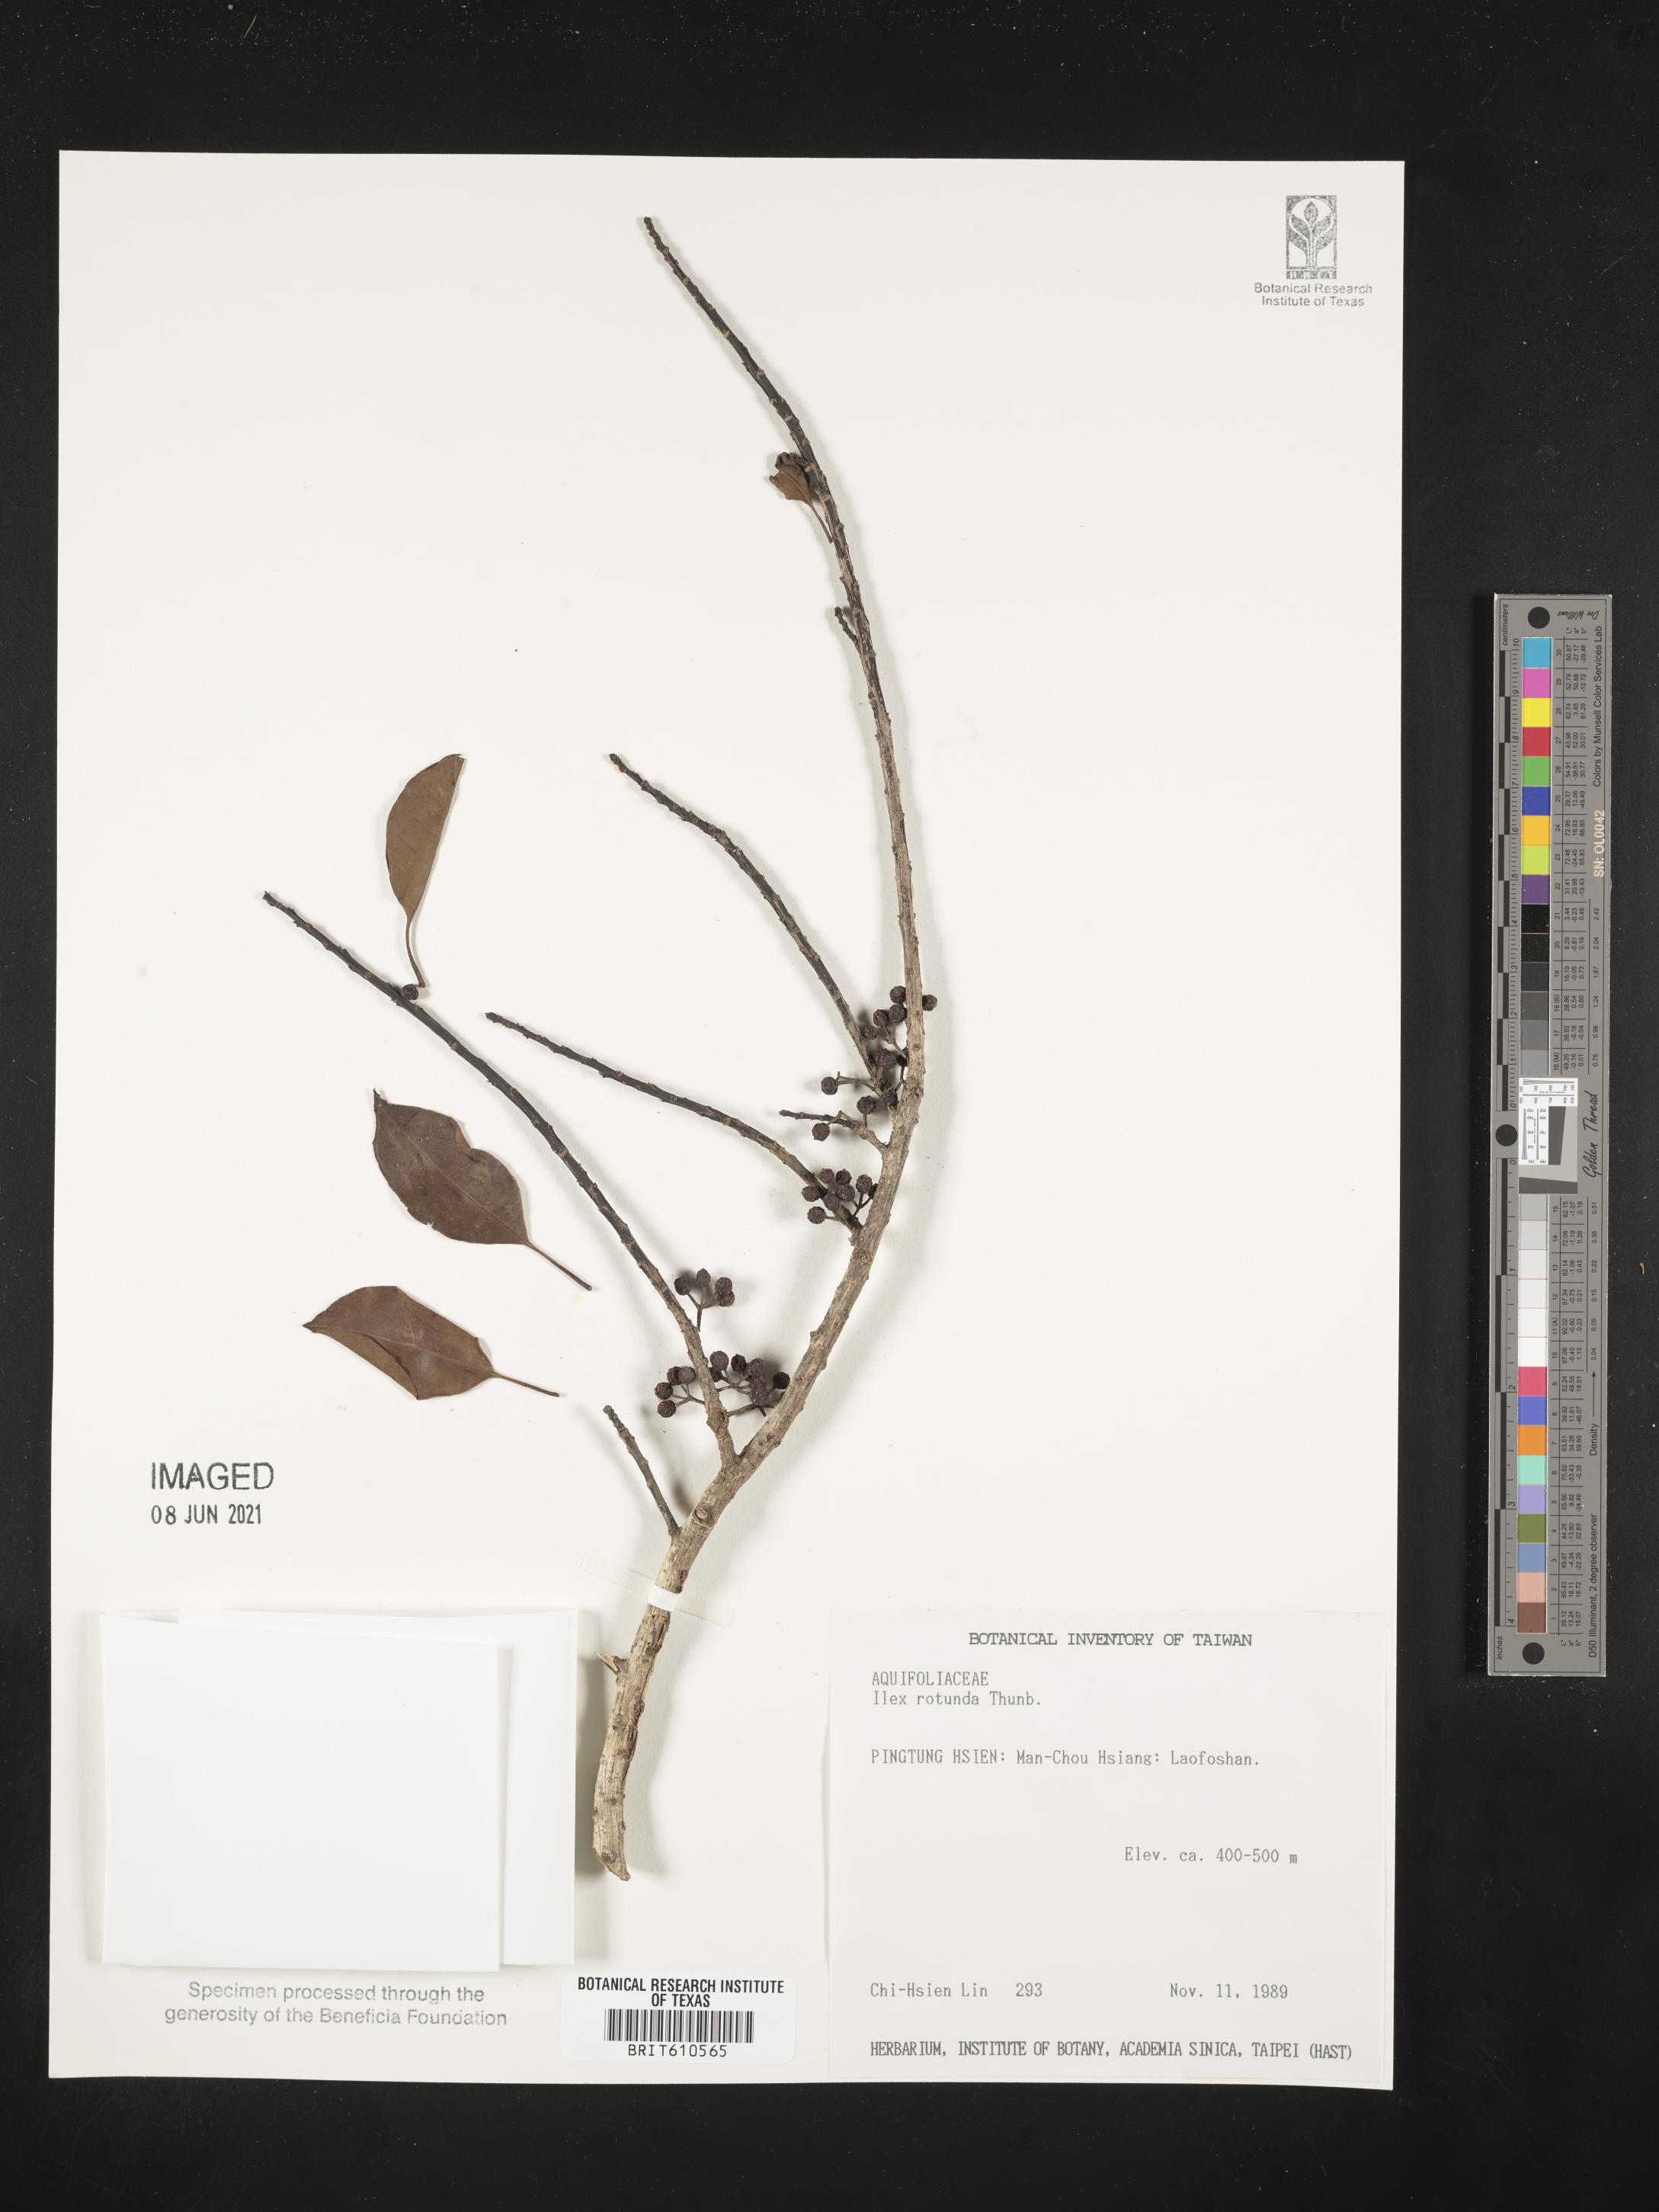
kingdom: Plantae
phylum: Tracheophyta
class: Magnoliopsida
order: Aquifoliales
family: Aquifoliaceae
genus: Ilex
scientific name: Ilex rotunda
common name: Kurogane holly
